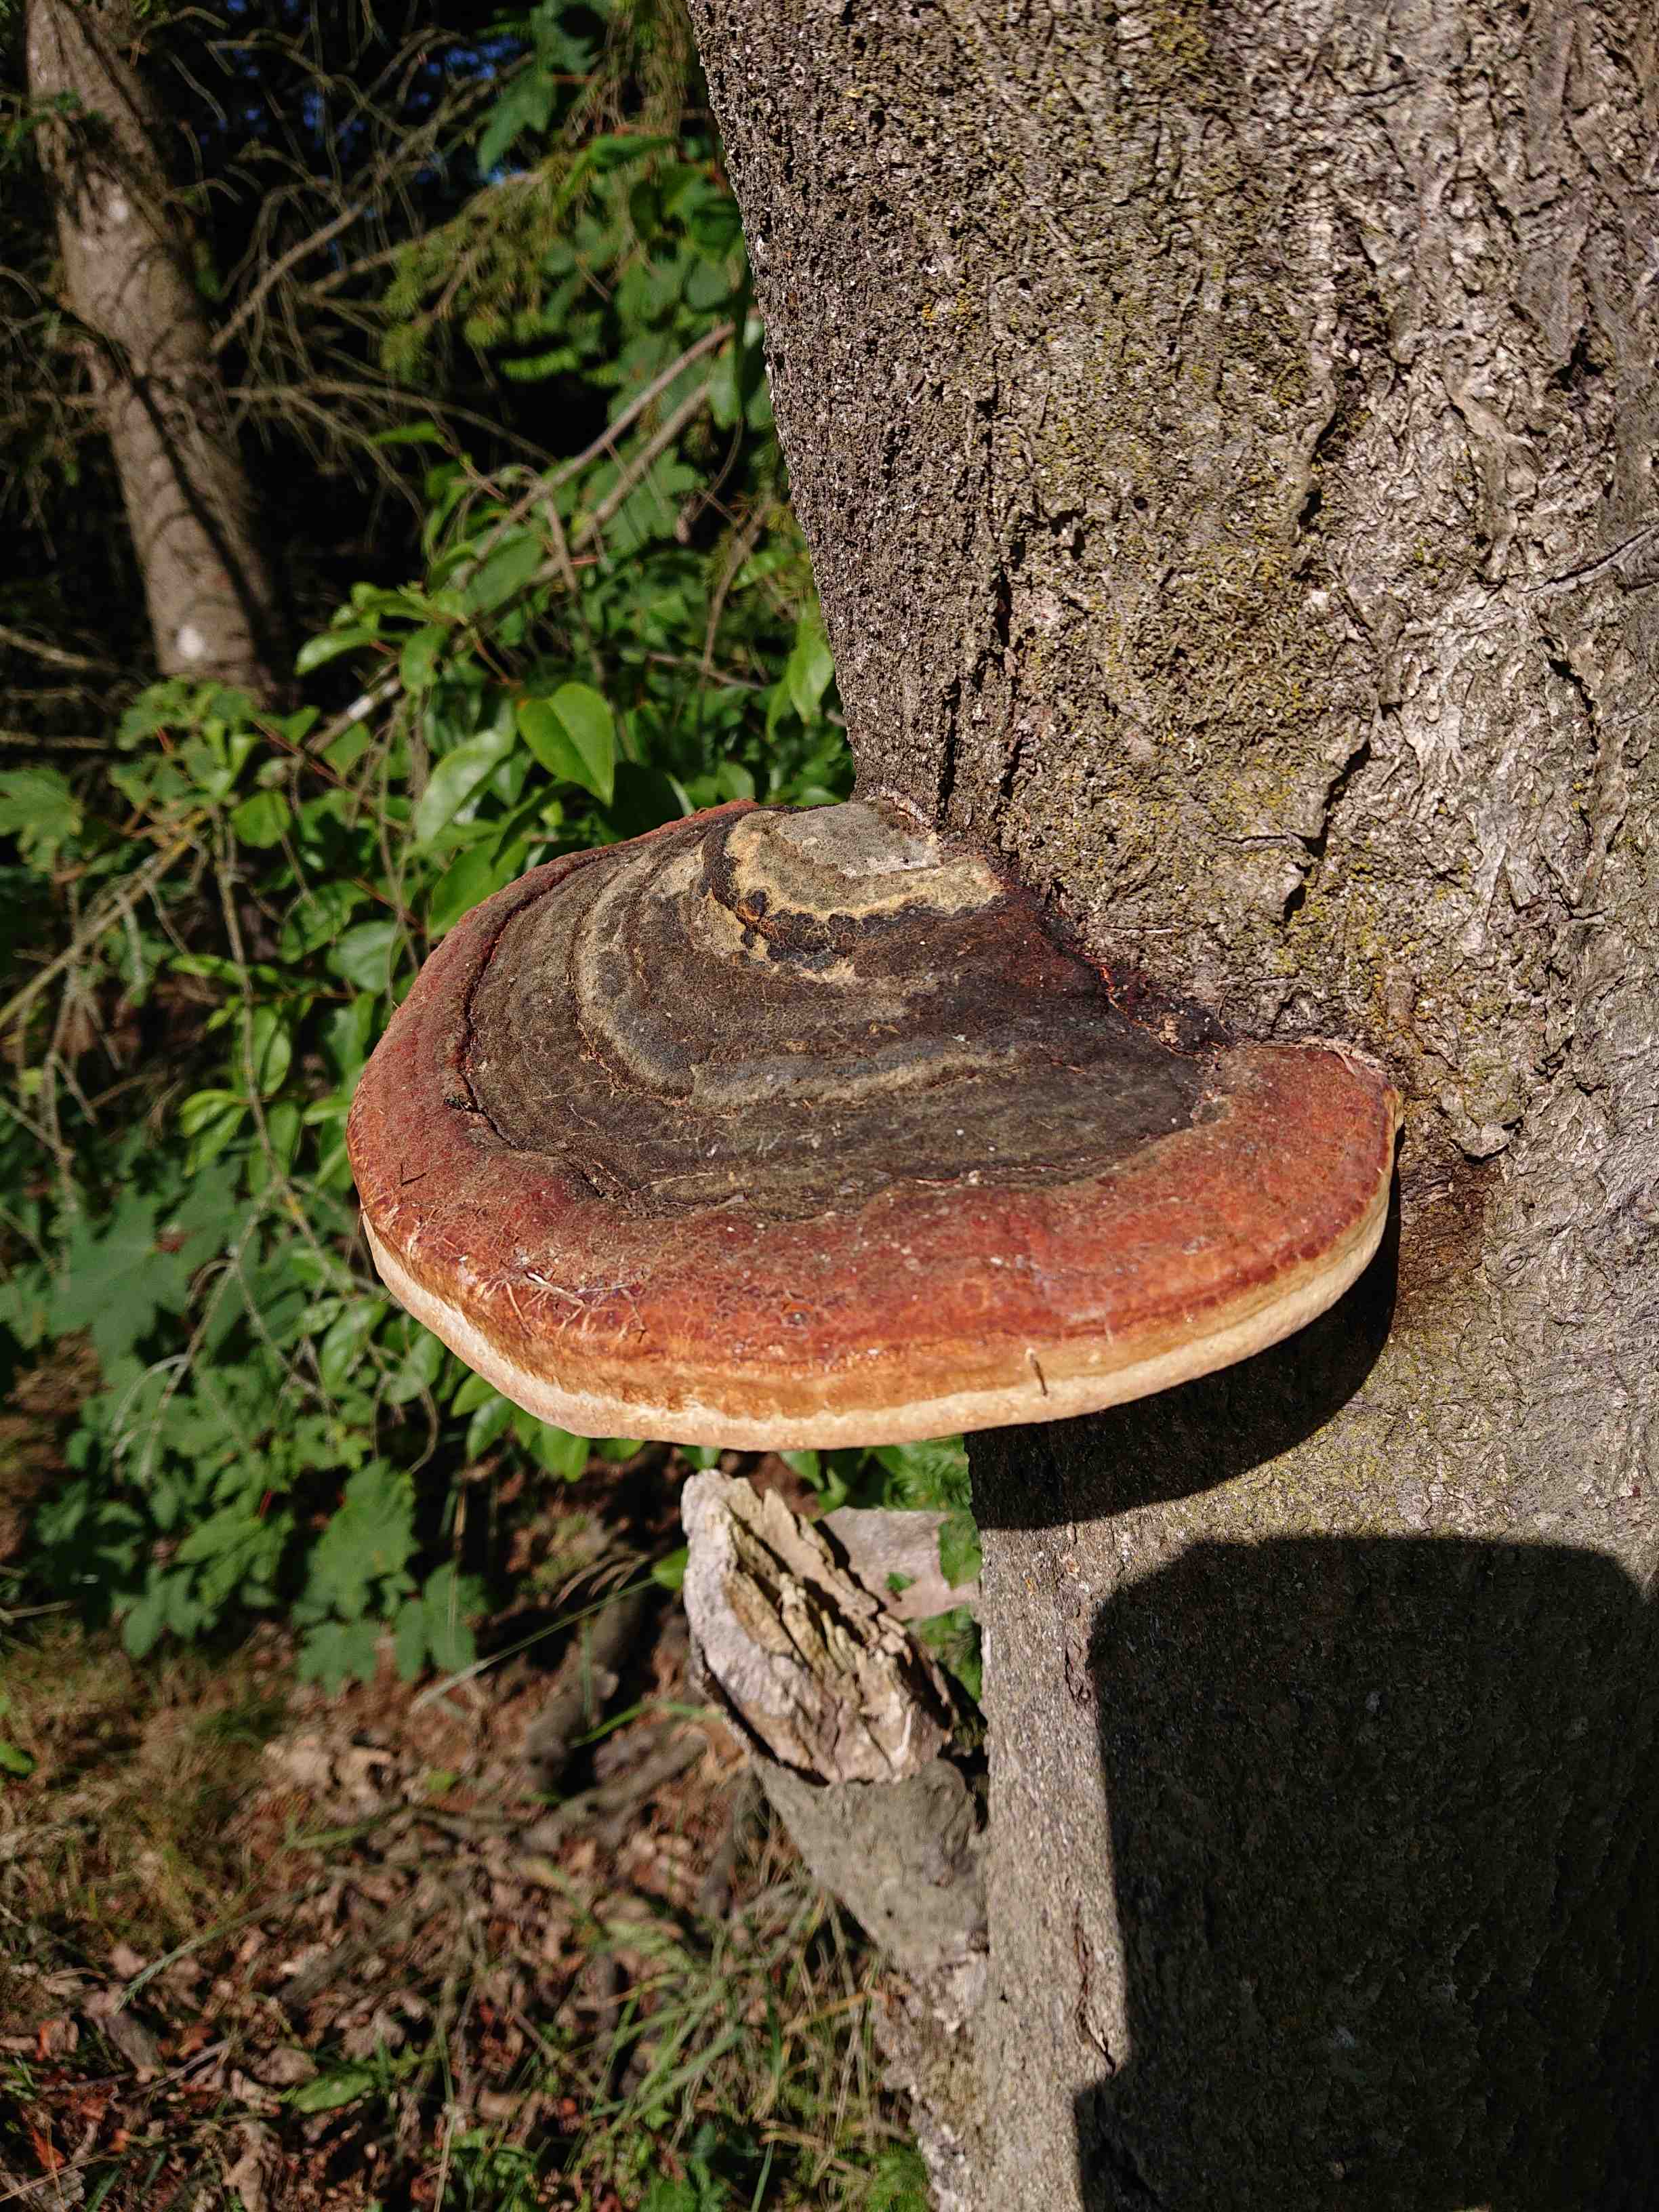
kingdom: Fungi
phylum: Basidiomycota
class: Agaricomycetes
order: Polyporales
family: Fomitopsidaceae
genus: Fomitopsis
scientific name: Fomitopsis pinicola
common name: randbæltet hovporesvamp
